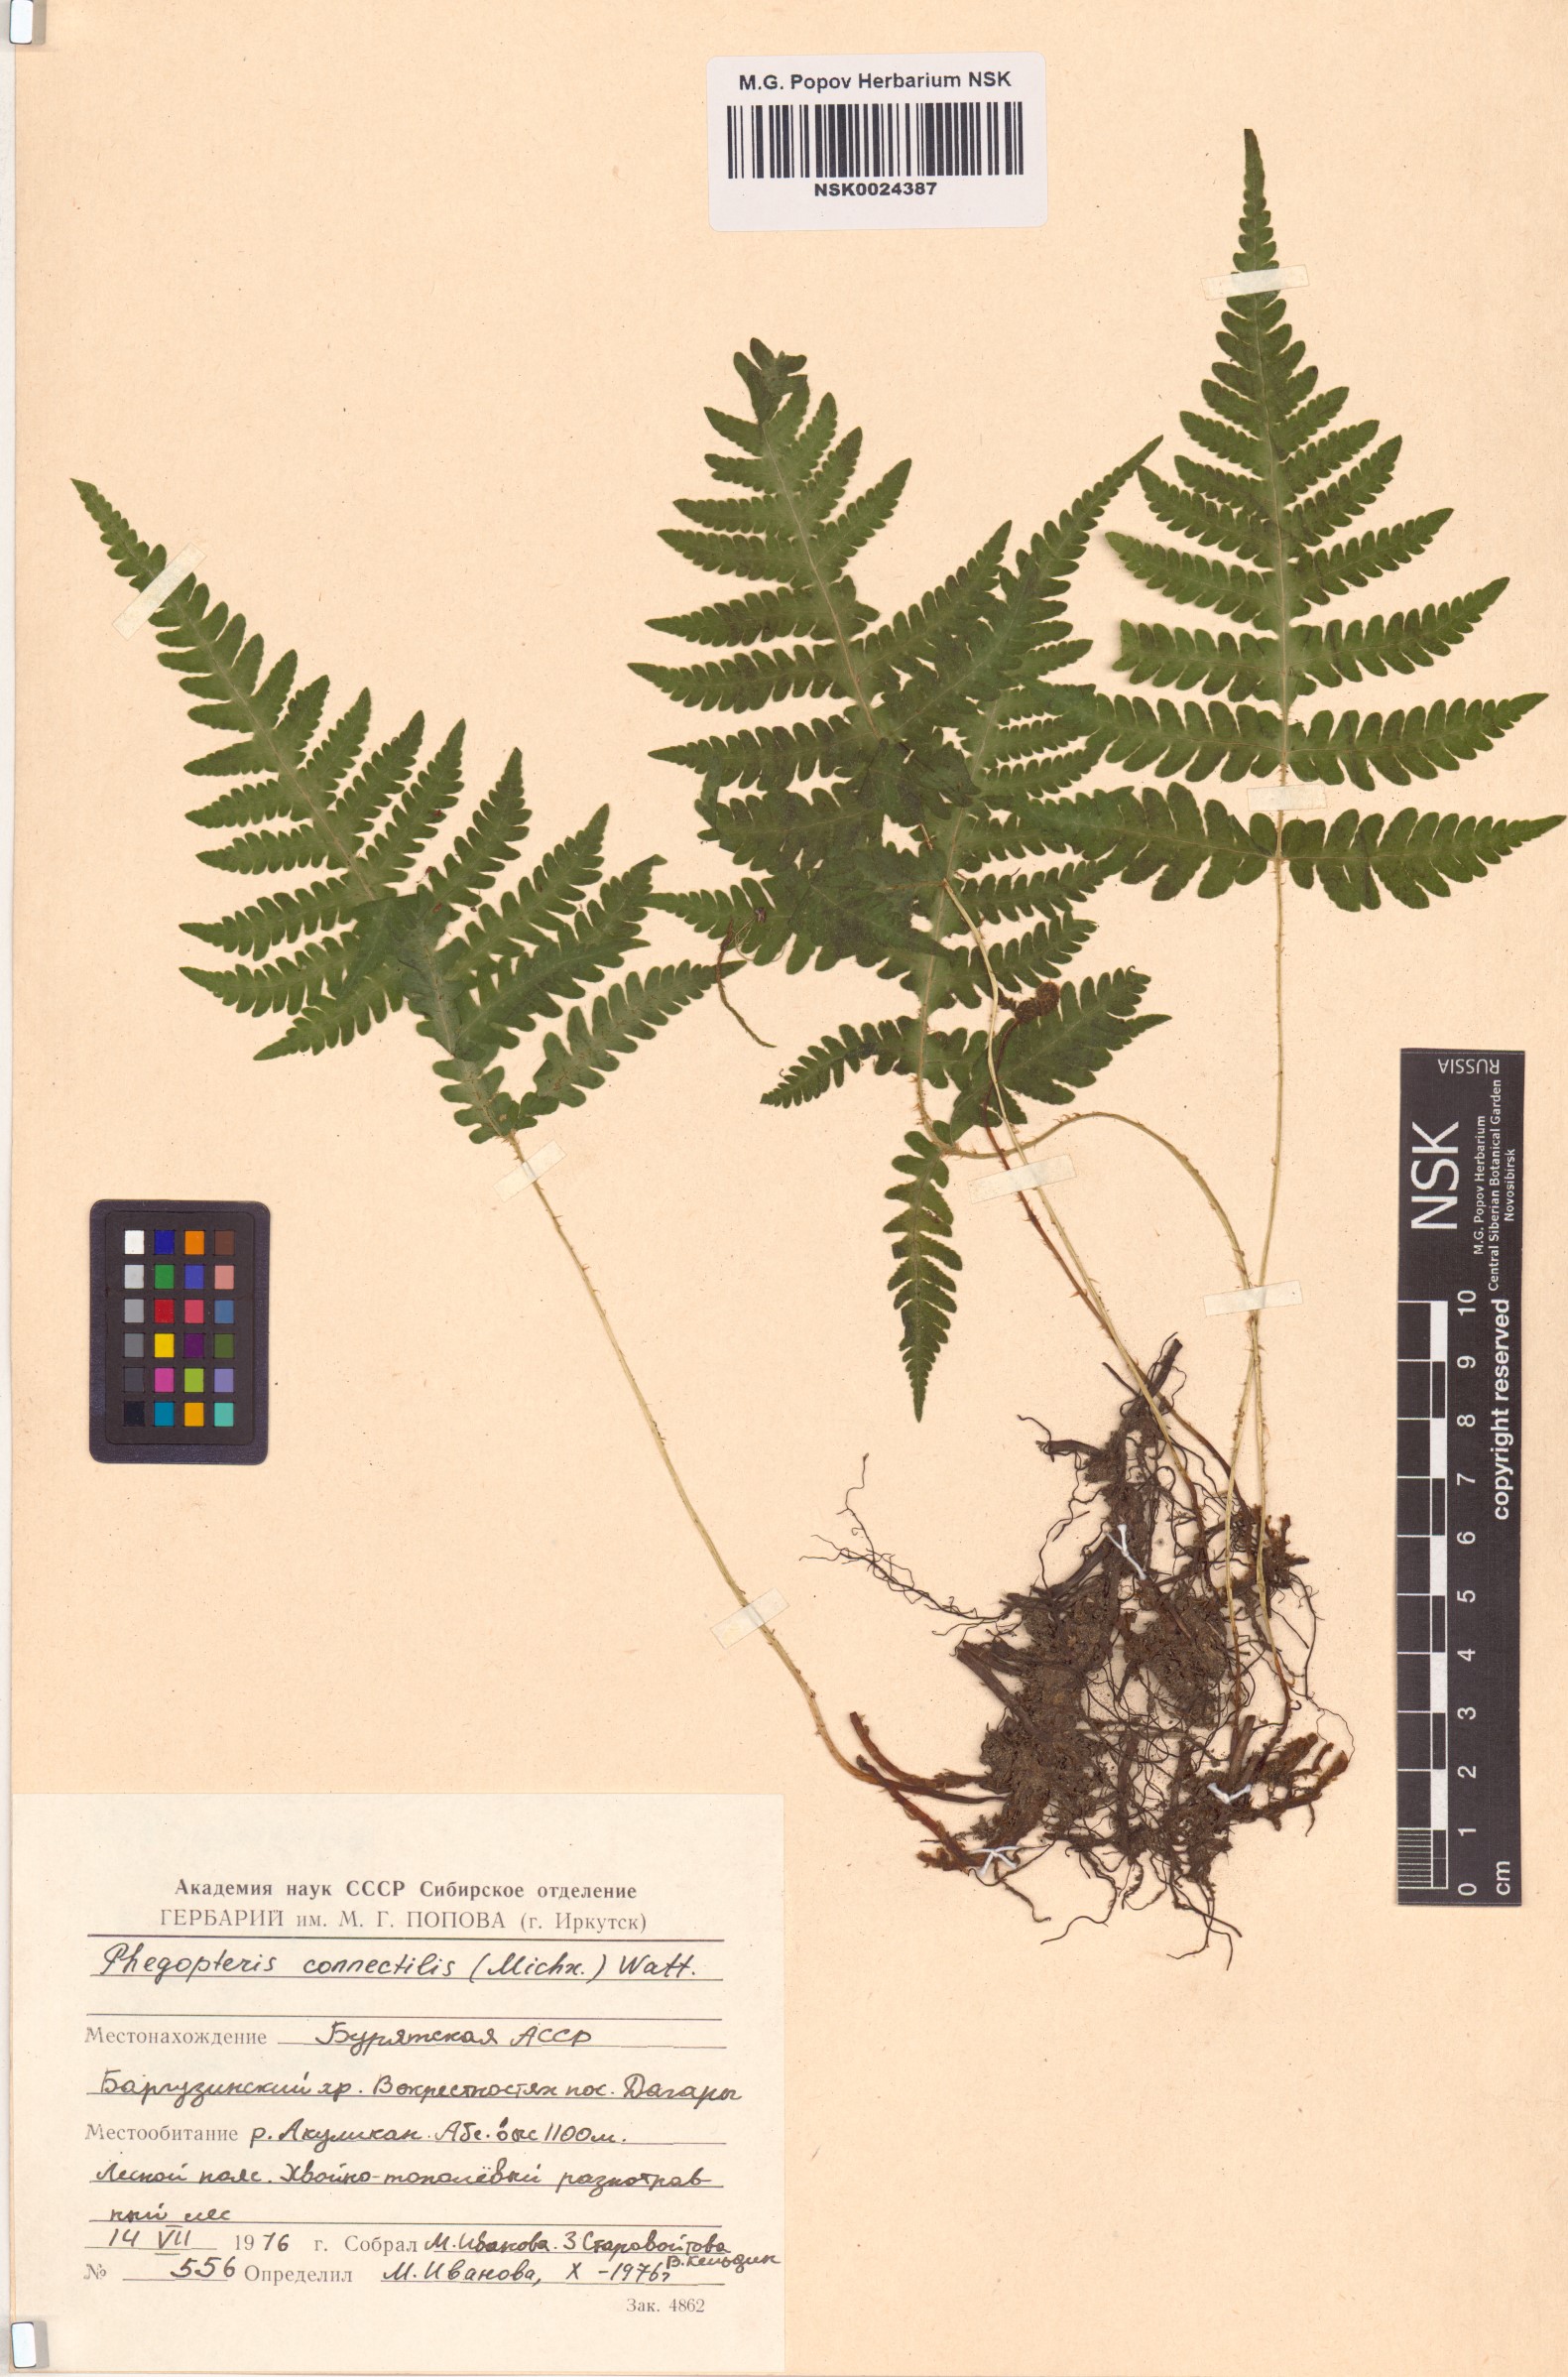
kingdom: Plantae
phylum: Tracheophyta
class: Polypodiopsida
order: Polypodiales
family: Thelypteridaceae
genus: Phegopteris
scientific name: Phegopteris connectilis
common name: Beech fern
